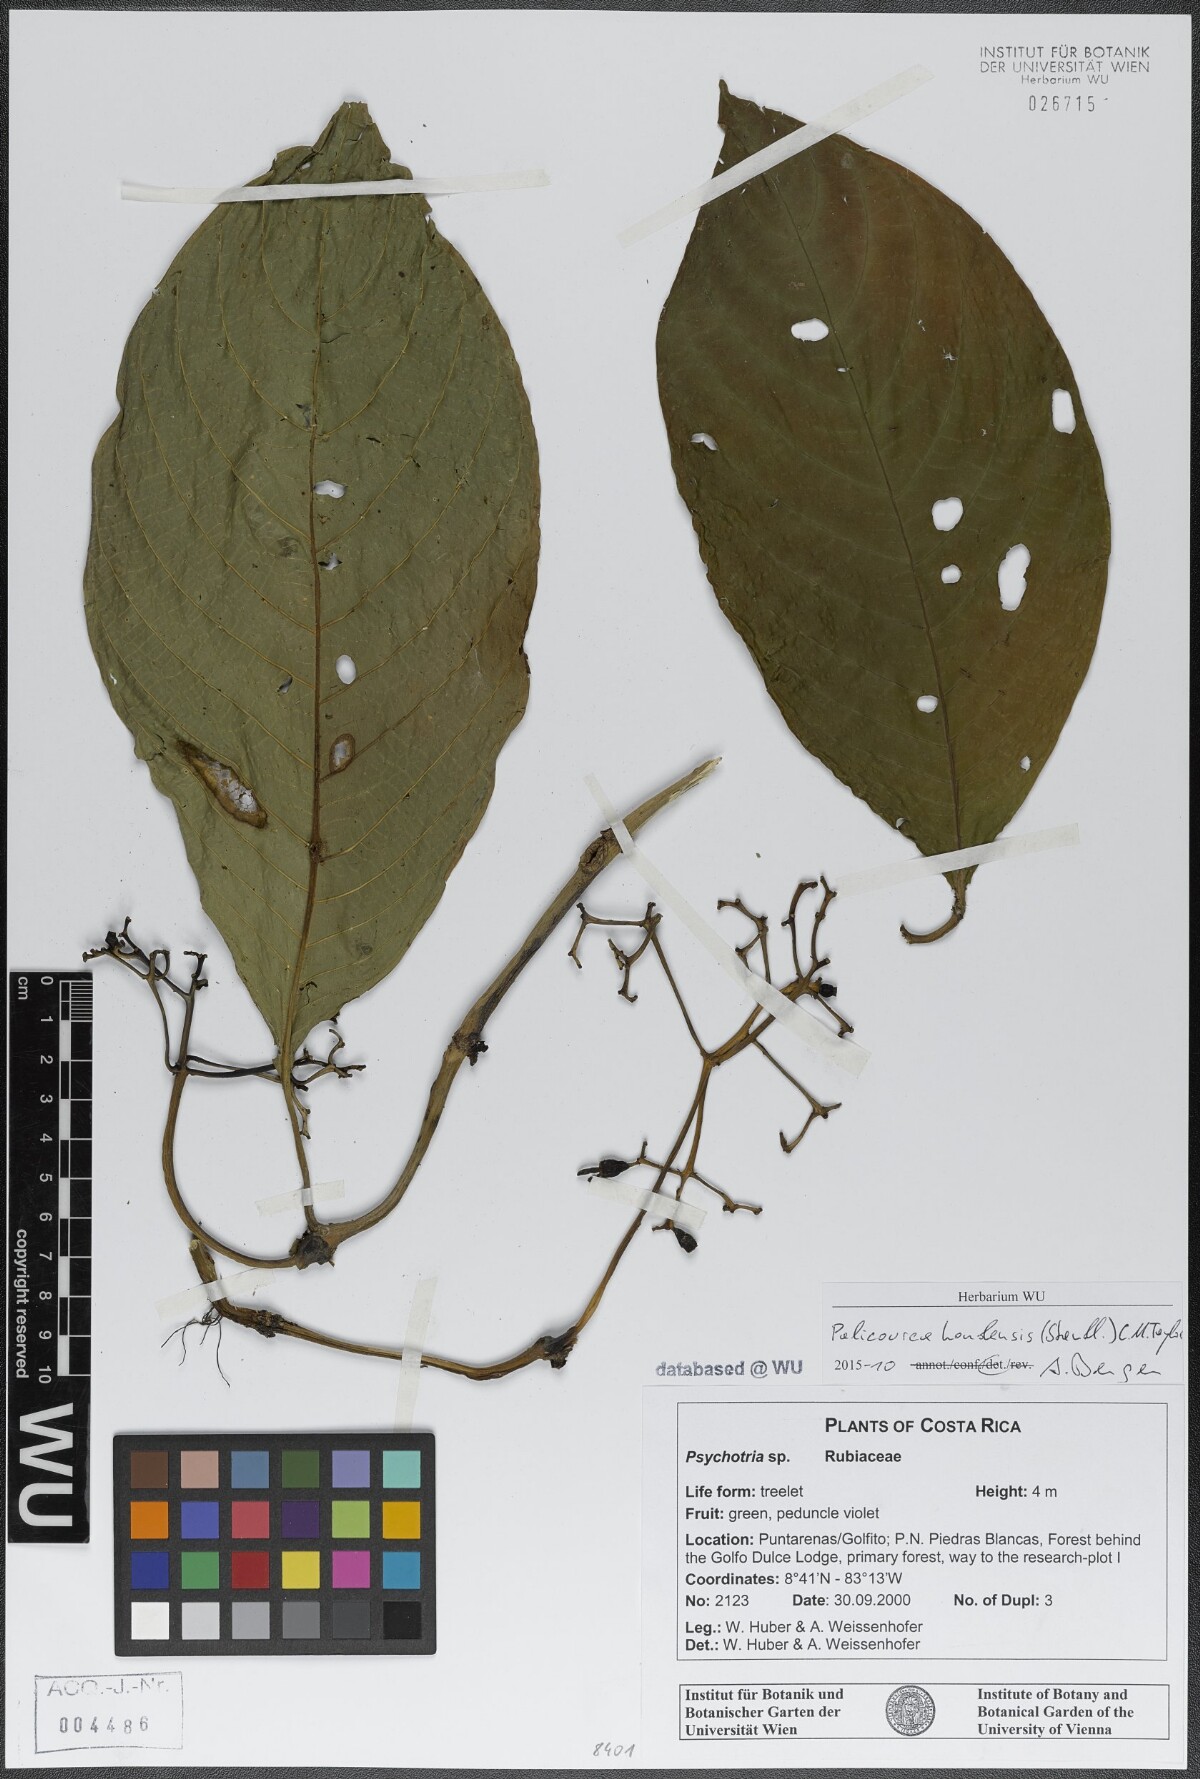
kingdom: Plantae
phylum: Tracheophyta
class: Magnoliopsida
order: Gentianales
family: Rubiaceae
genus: Palicourea
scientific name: Palicourea hondensis
